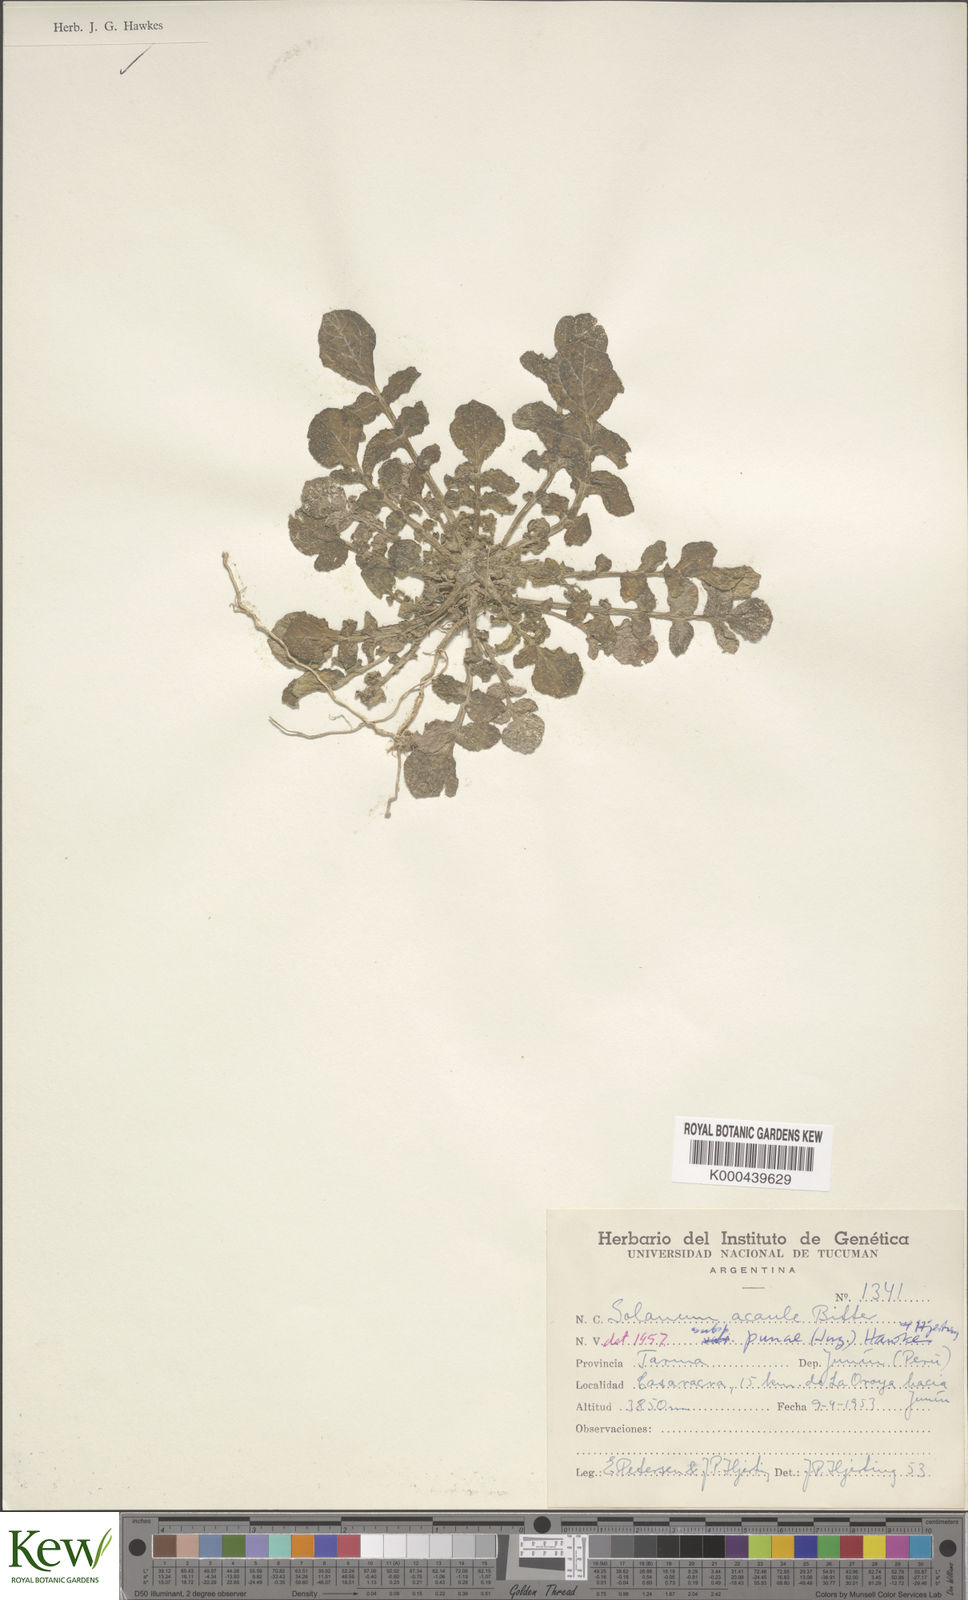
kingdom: Plantae
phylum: Tracheophyta
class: Magnoliopsida
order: Solanales
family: Solanaceae
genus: Solanum
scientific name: Solanum acaule
